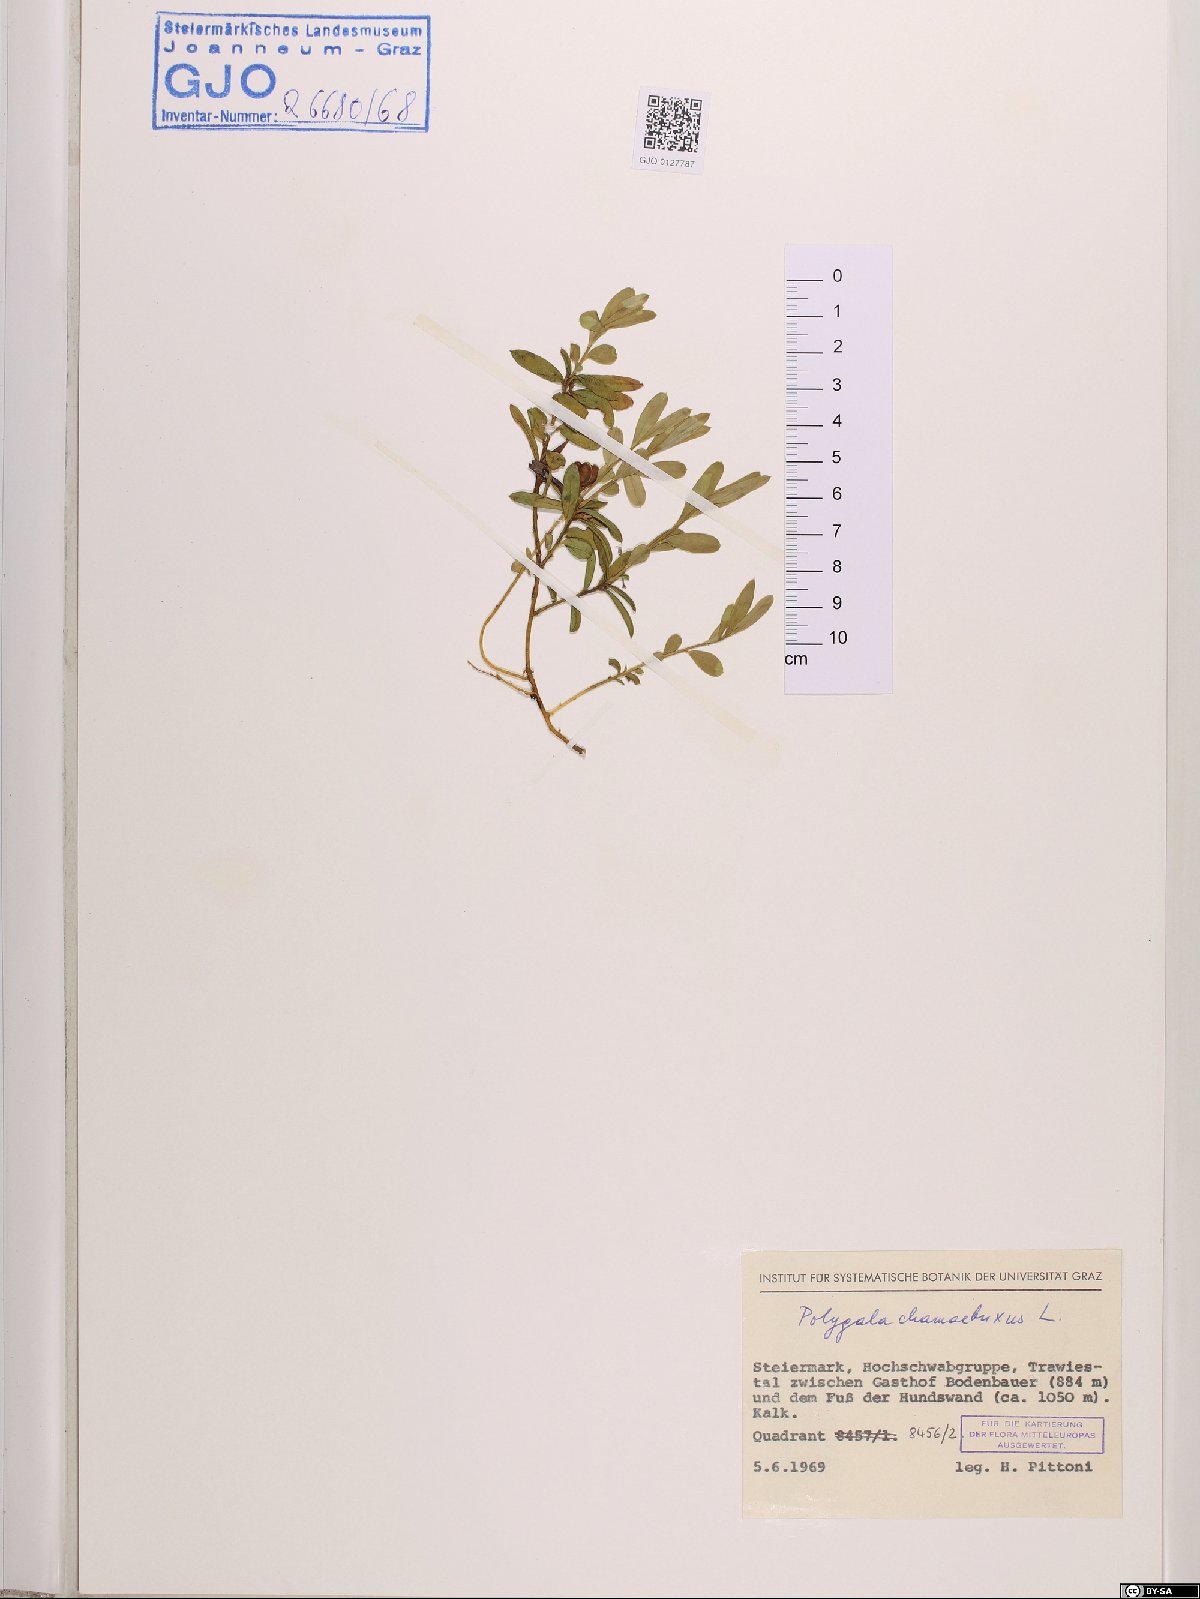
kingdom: Plantae
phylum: Tracheophyta
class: Magnoliopsida
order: Fabales
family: Polygalaceae
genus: Polygaloides
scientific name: Polygaloides chamaebuxus
